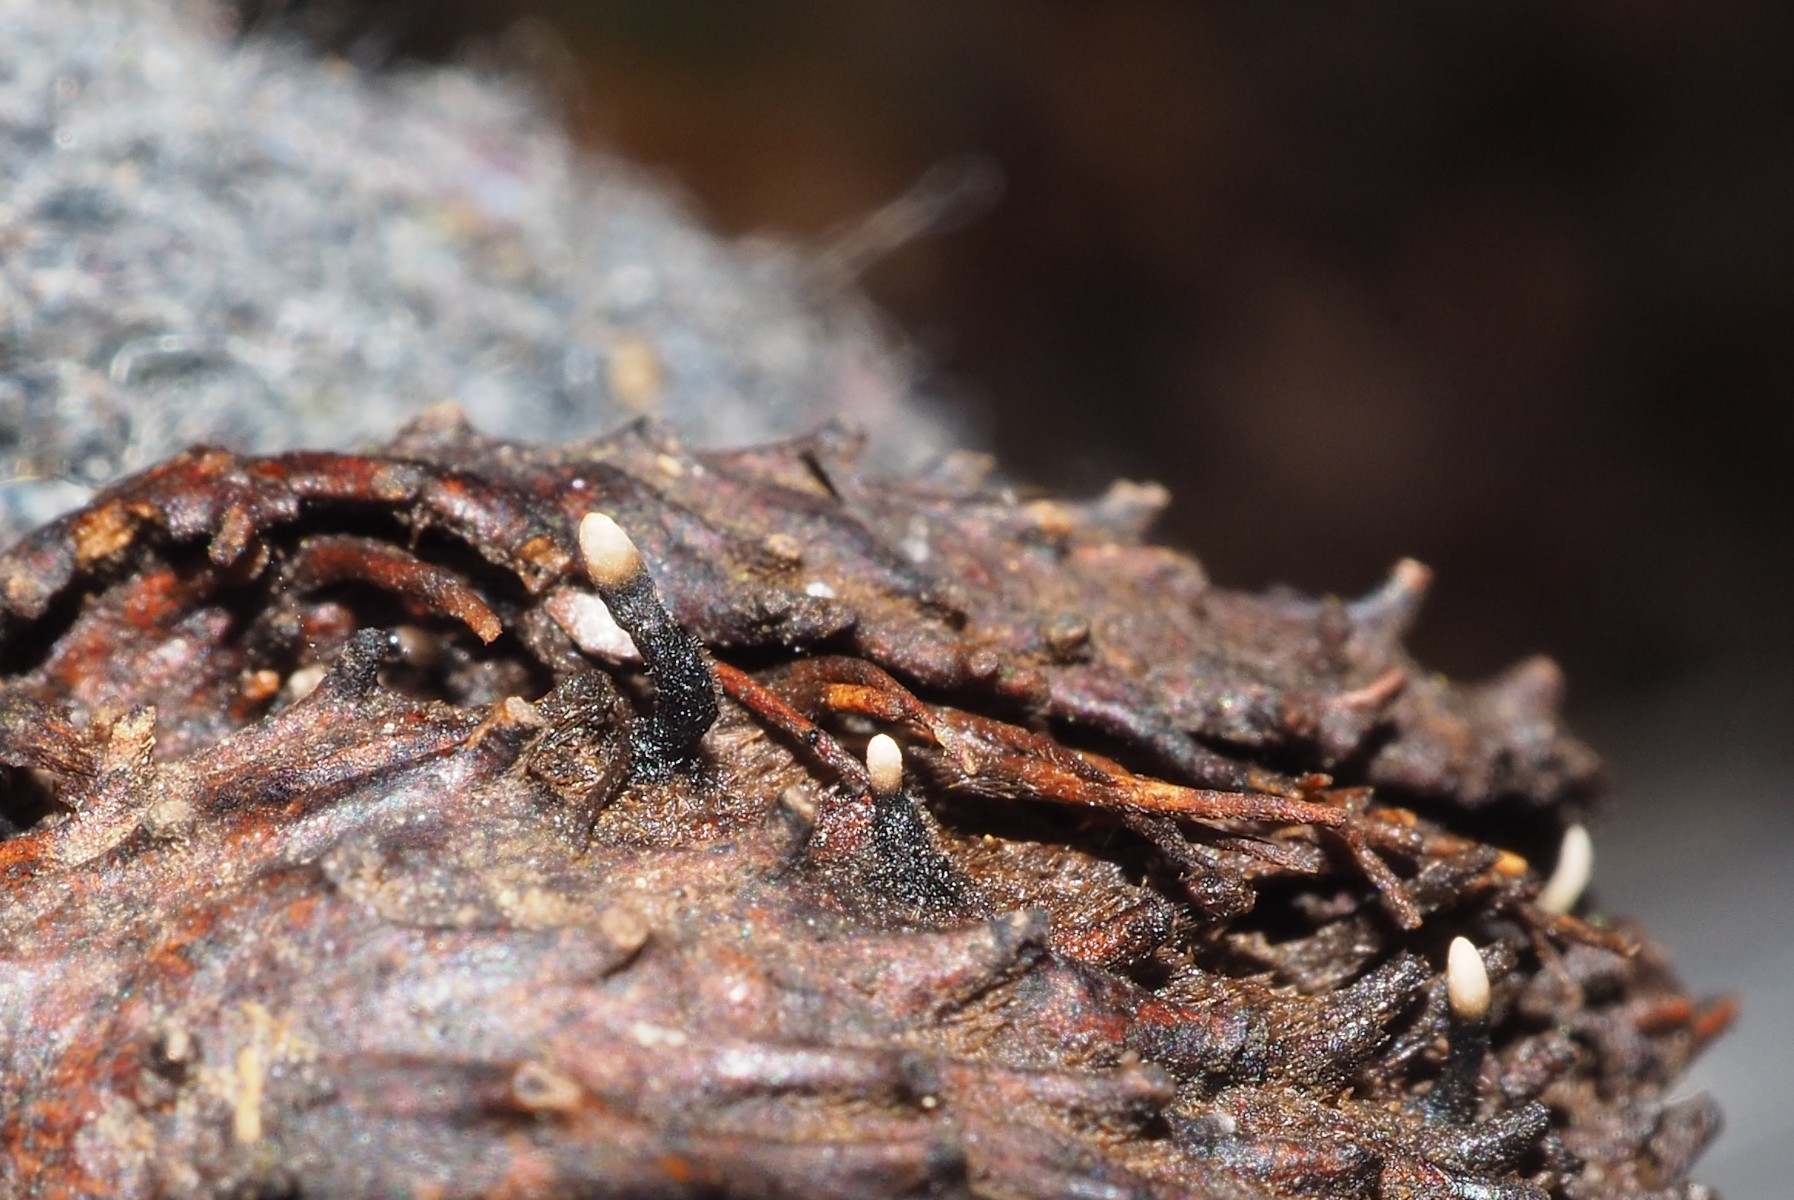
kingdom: Fungi
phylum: Ascomycota
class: Sordariomycetes
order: Xylariales
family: Xylariaceae
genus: Xylaria
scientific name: Xylaria carpophila
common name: bogskål-stødsvamp
